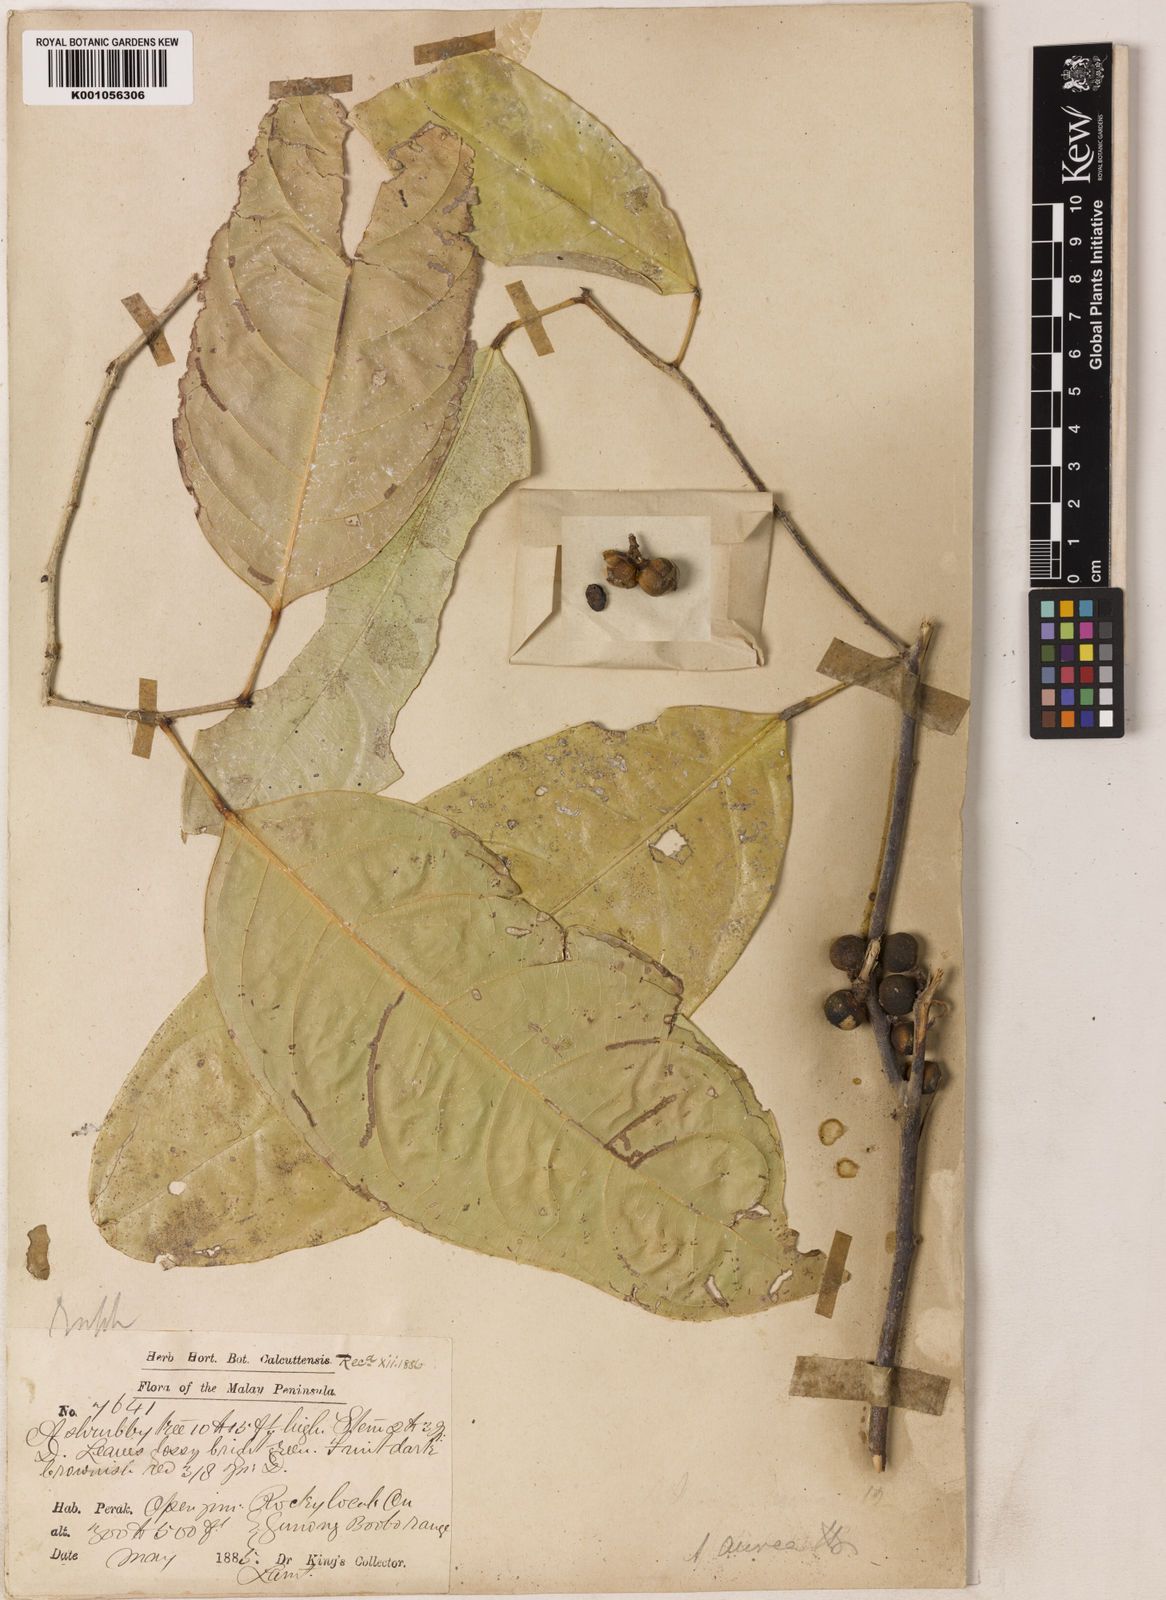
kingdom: Plantae
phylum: Tracheophyta
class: Magnoliopsida
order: Malpighiales
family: Phyllanthaceae
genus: Aporosa
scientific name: Aporosa aurea
